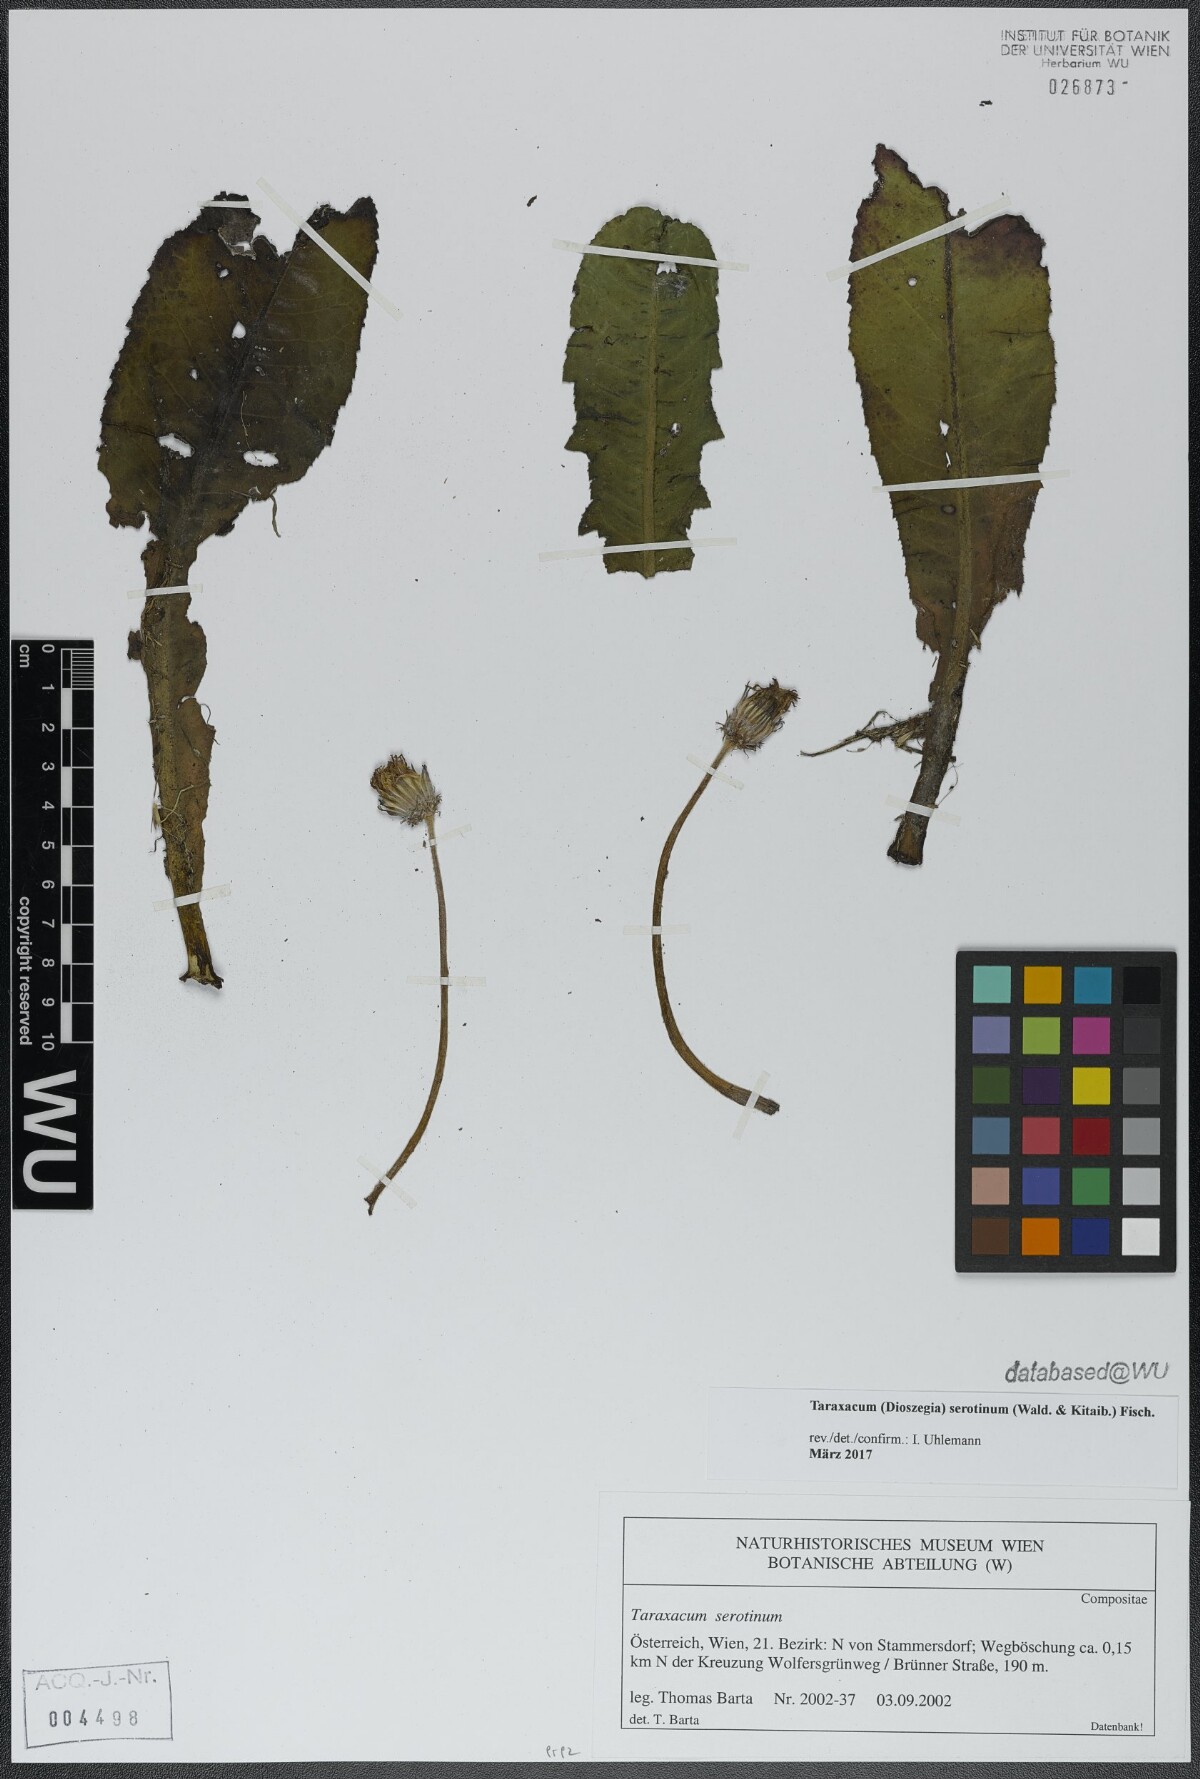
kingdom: Plantae
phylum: Tracheophyta
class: Magnoliopsida
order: Asterales
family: Asteraceae
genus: Taraxacum
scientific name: Taraxacum serotinum
